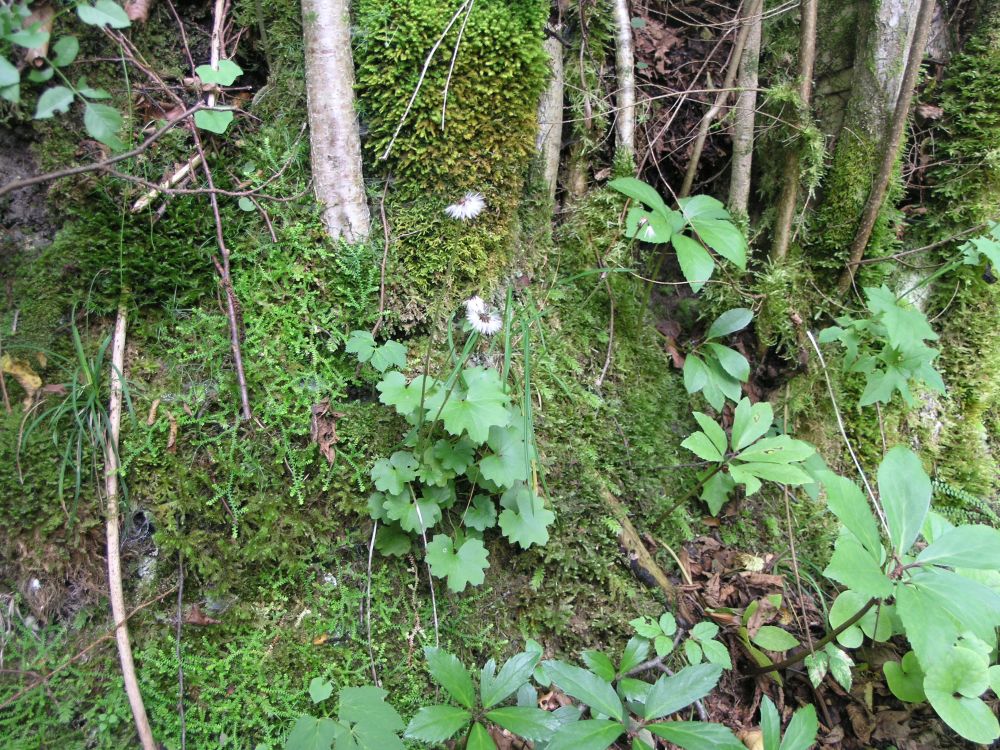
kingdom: Plantae
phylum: Tracheophyta
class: Magnoliopsida
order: Asterales
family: Asteraceae
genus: Homogyne
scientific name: Homogyne sylvestris
